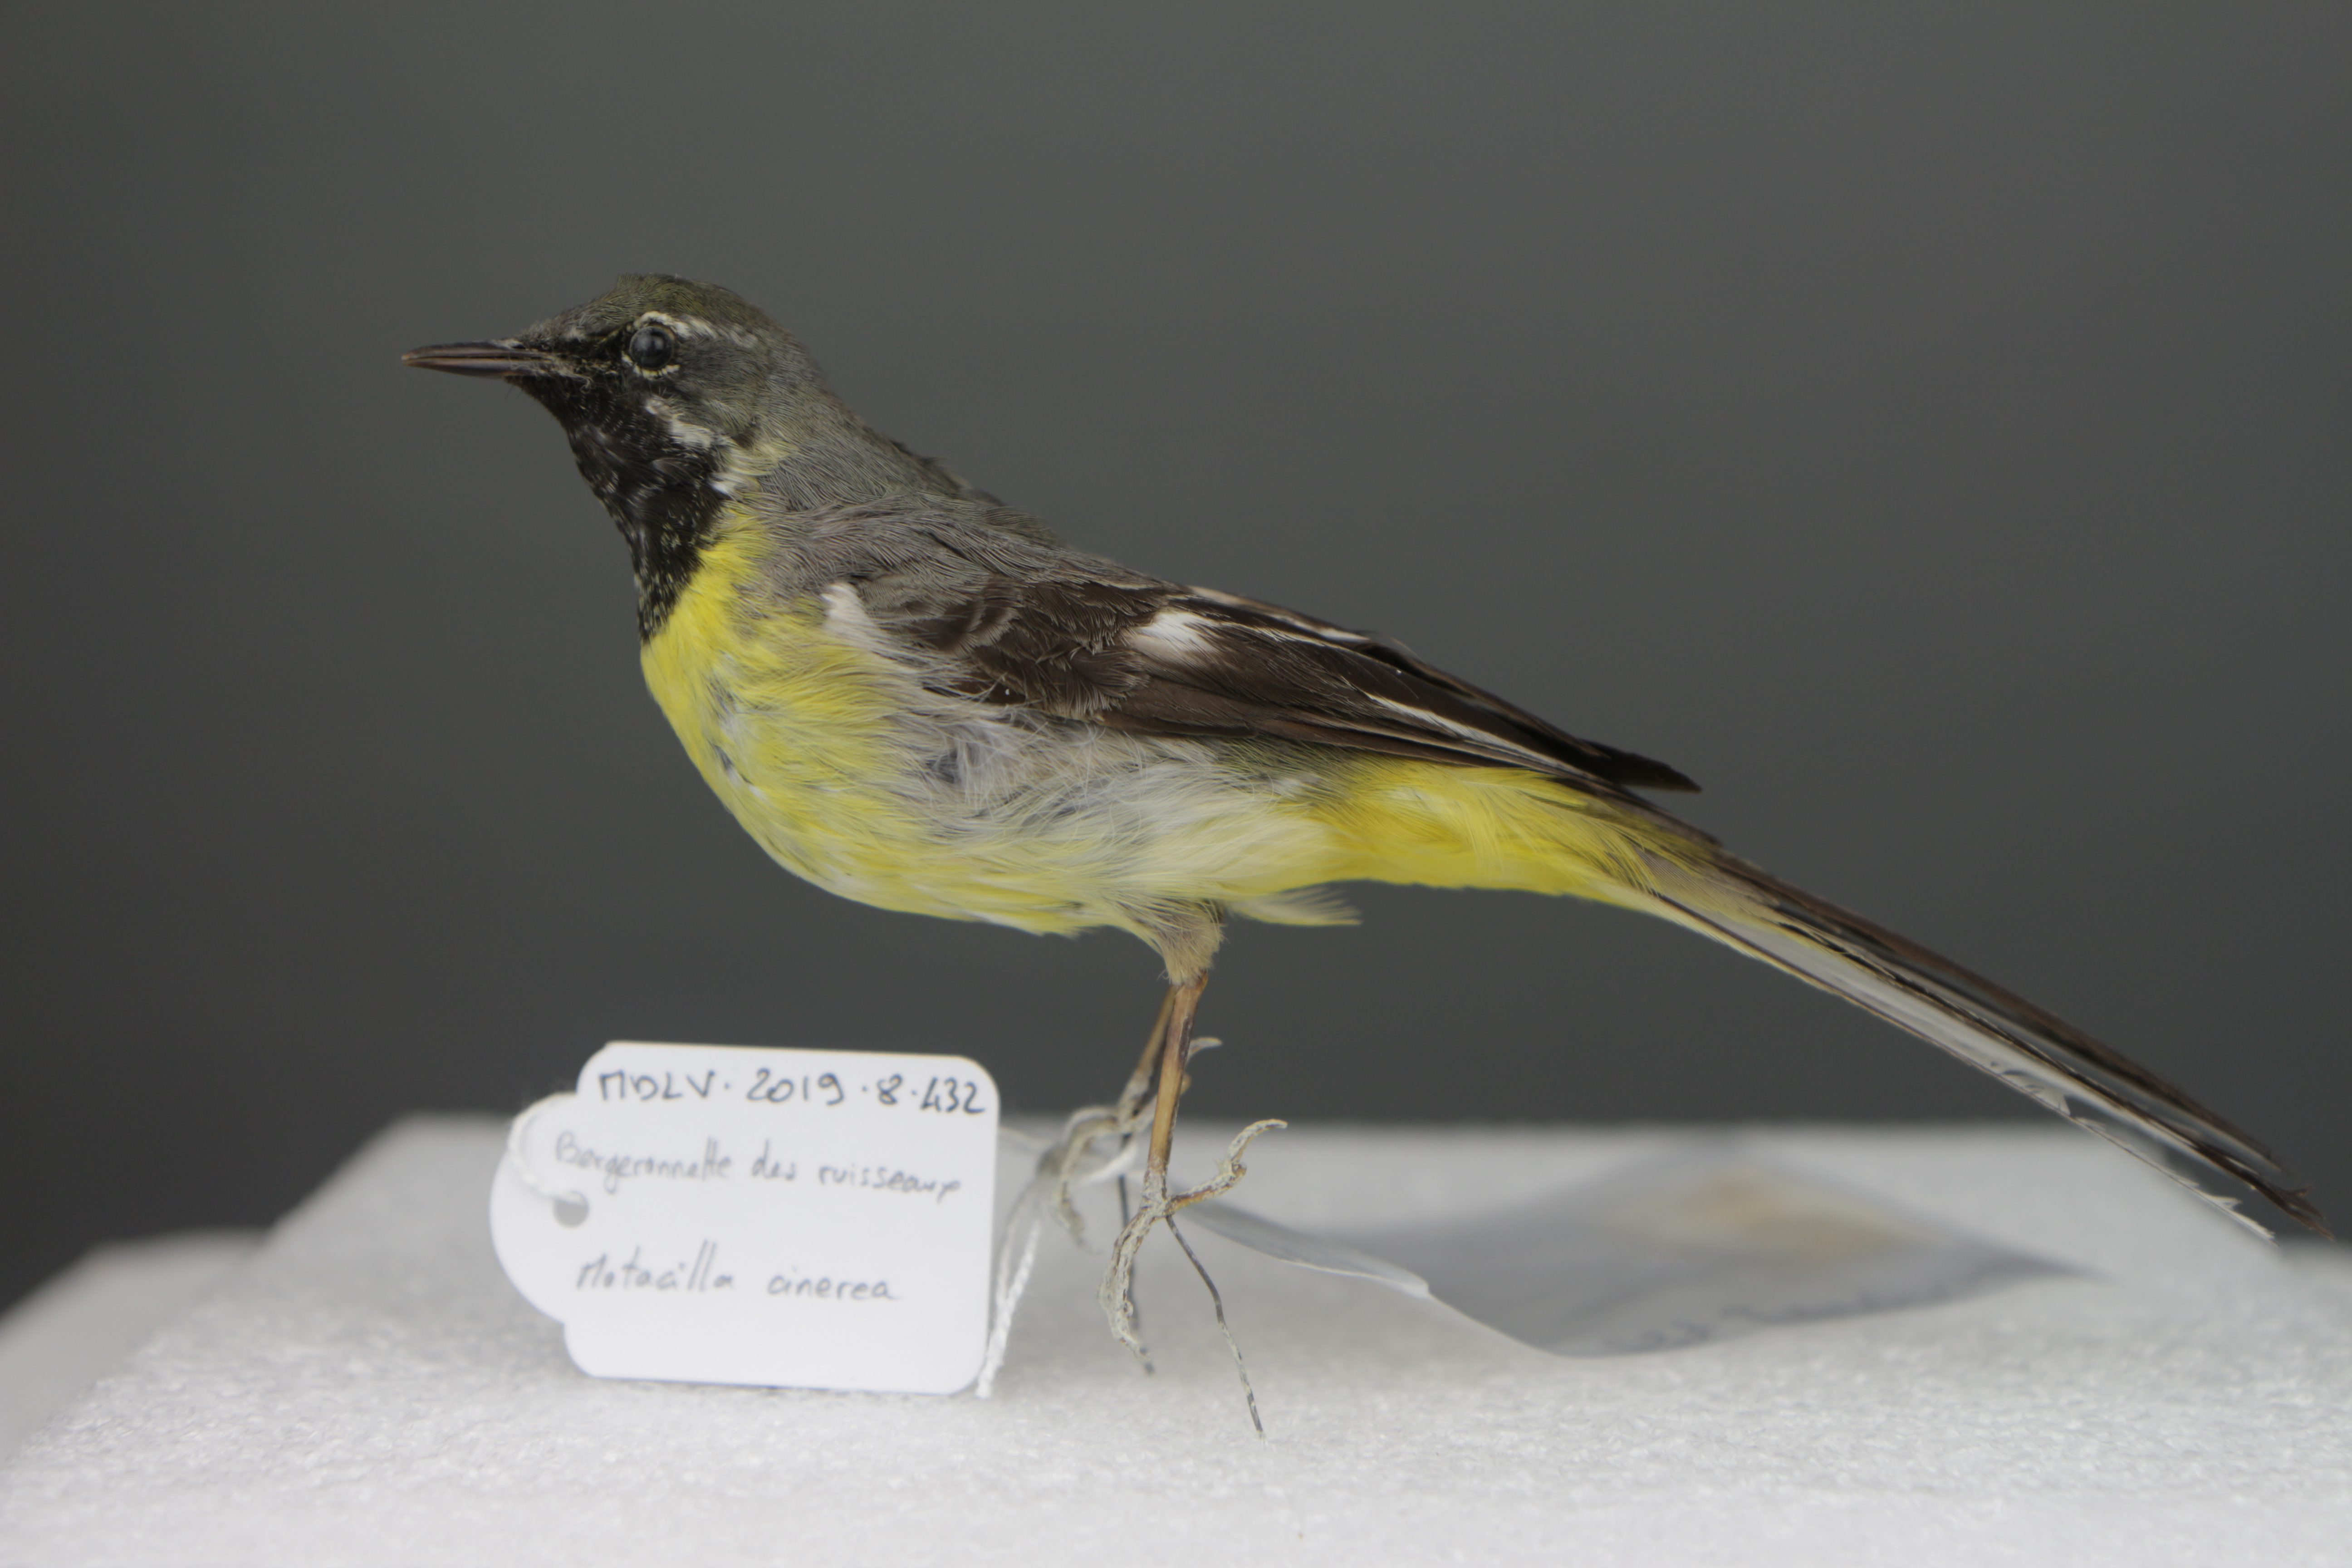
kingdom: Animalia
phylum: Chordata
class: Aves
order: Passeriformes
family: Motacillidae
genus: Motacilla
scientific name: Motacilla cinerea
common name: Grey wagtail
